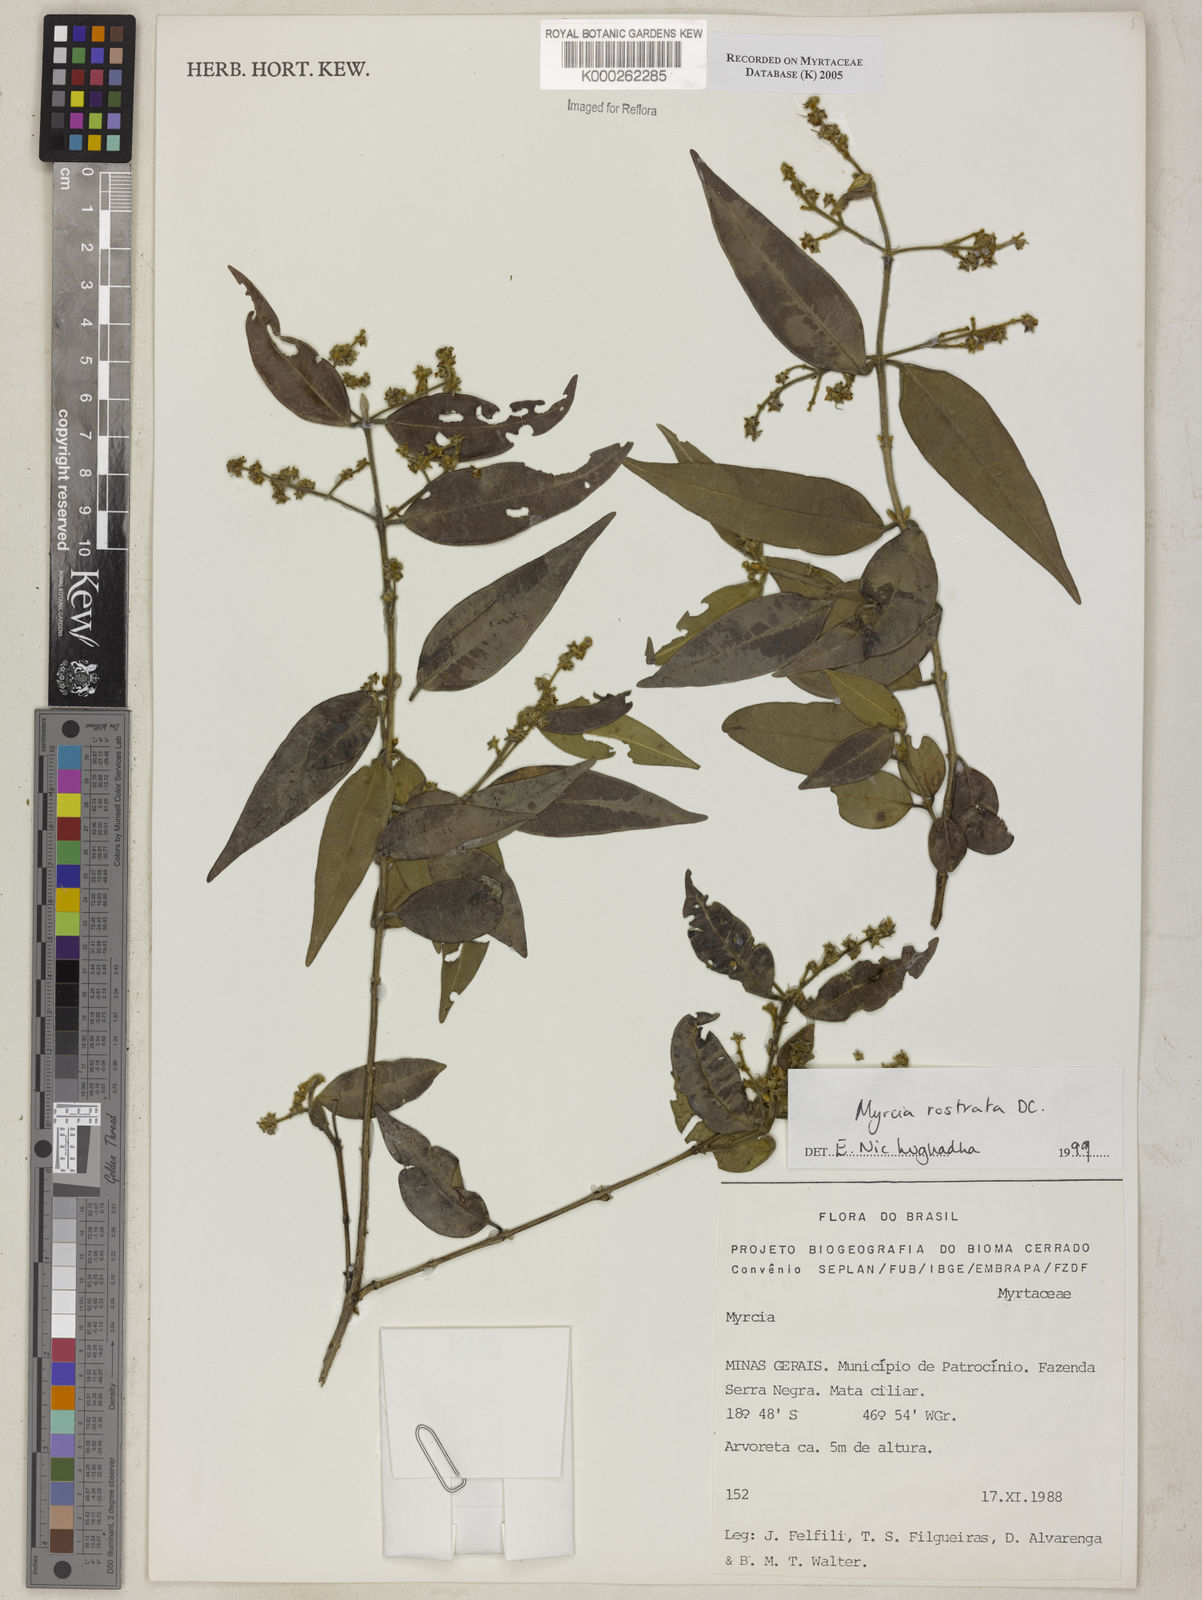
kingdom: Plantae
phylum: Tracheophyta
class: Magnoliopsida
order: Myrtales
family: Myrtaceae
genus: Myrcia
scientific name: Myrcia splendens
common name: Surinam cherry
